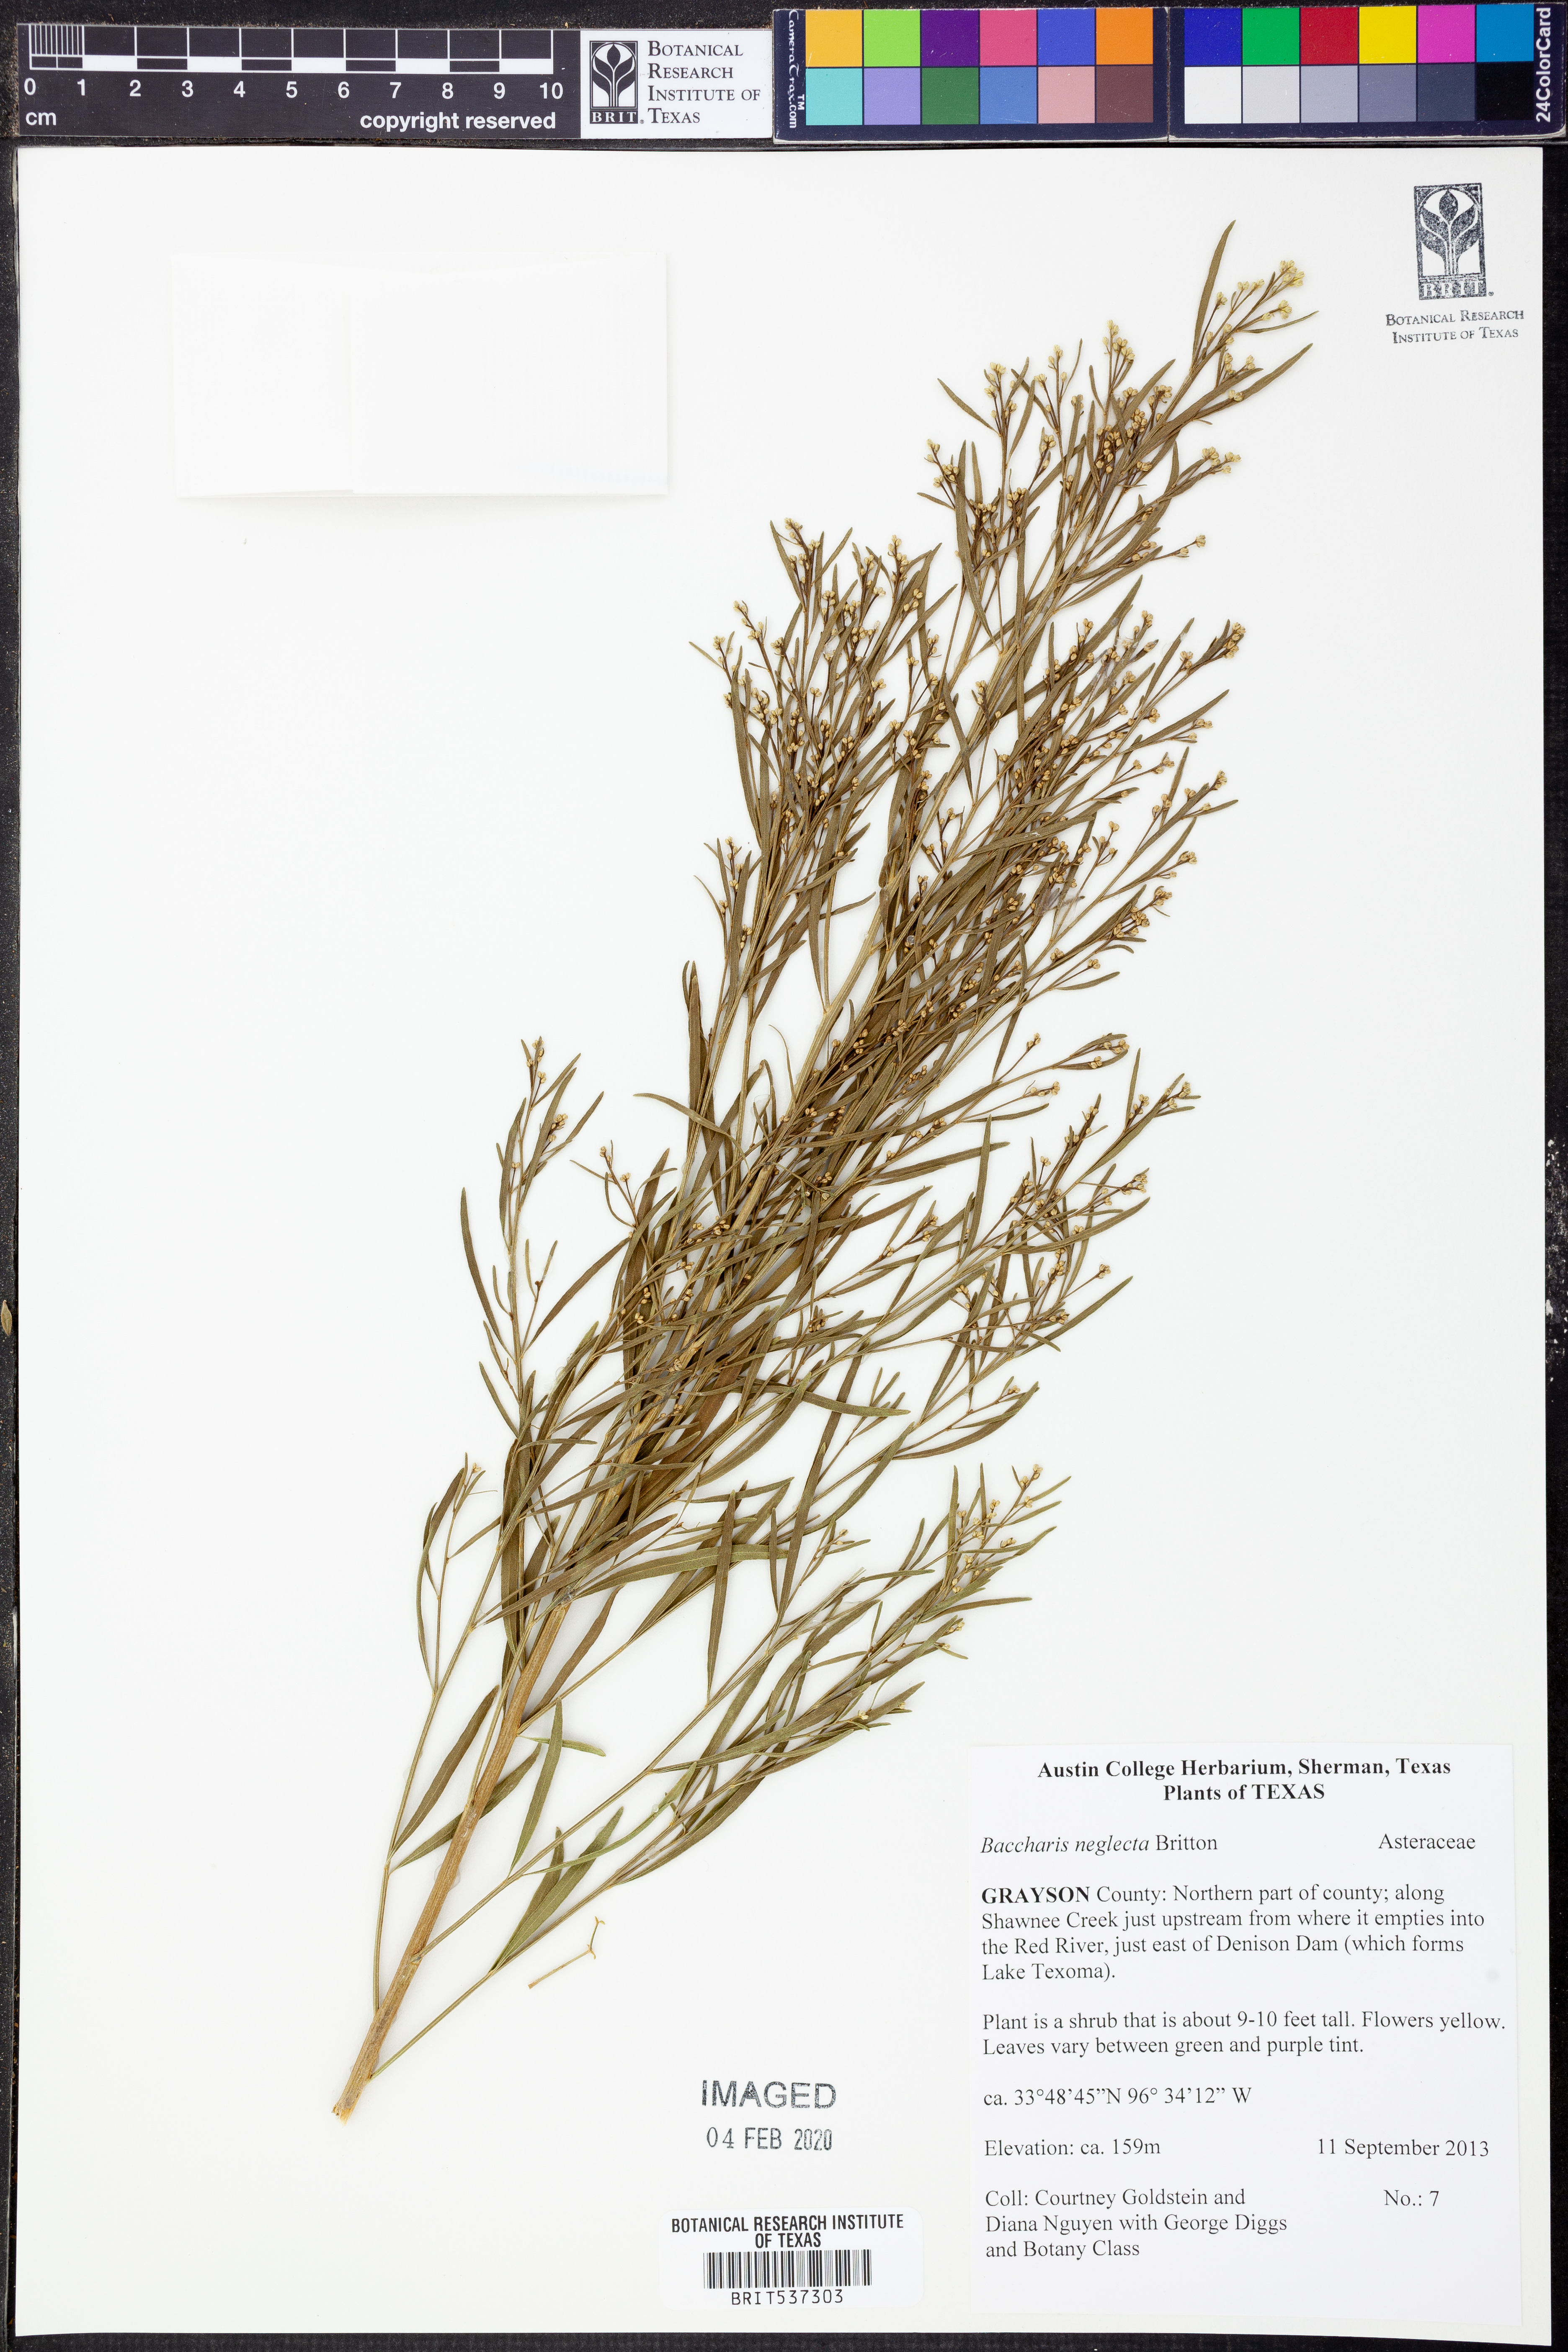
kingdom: Plantae
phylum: Tracheophyta
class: Magnoliopsida
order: Asterales
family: Asteraceae
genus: Baccharis
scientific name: Baccharis neglecta
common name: Roosevelt-weed
